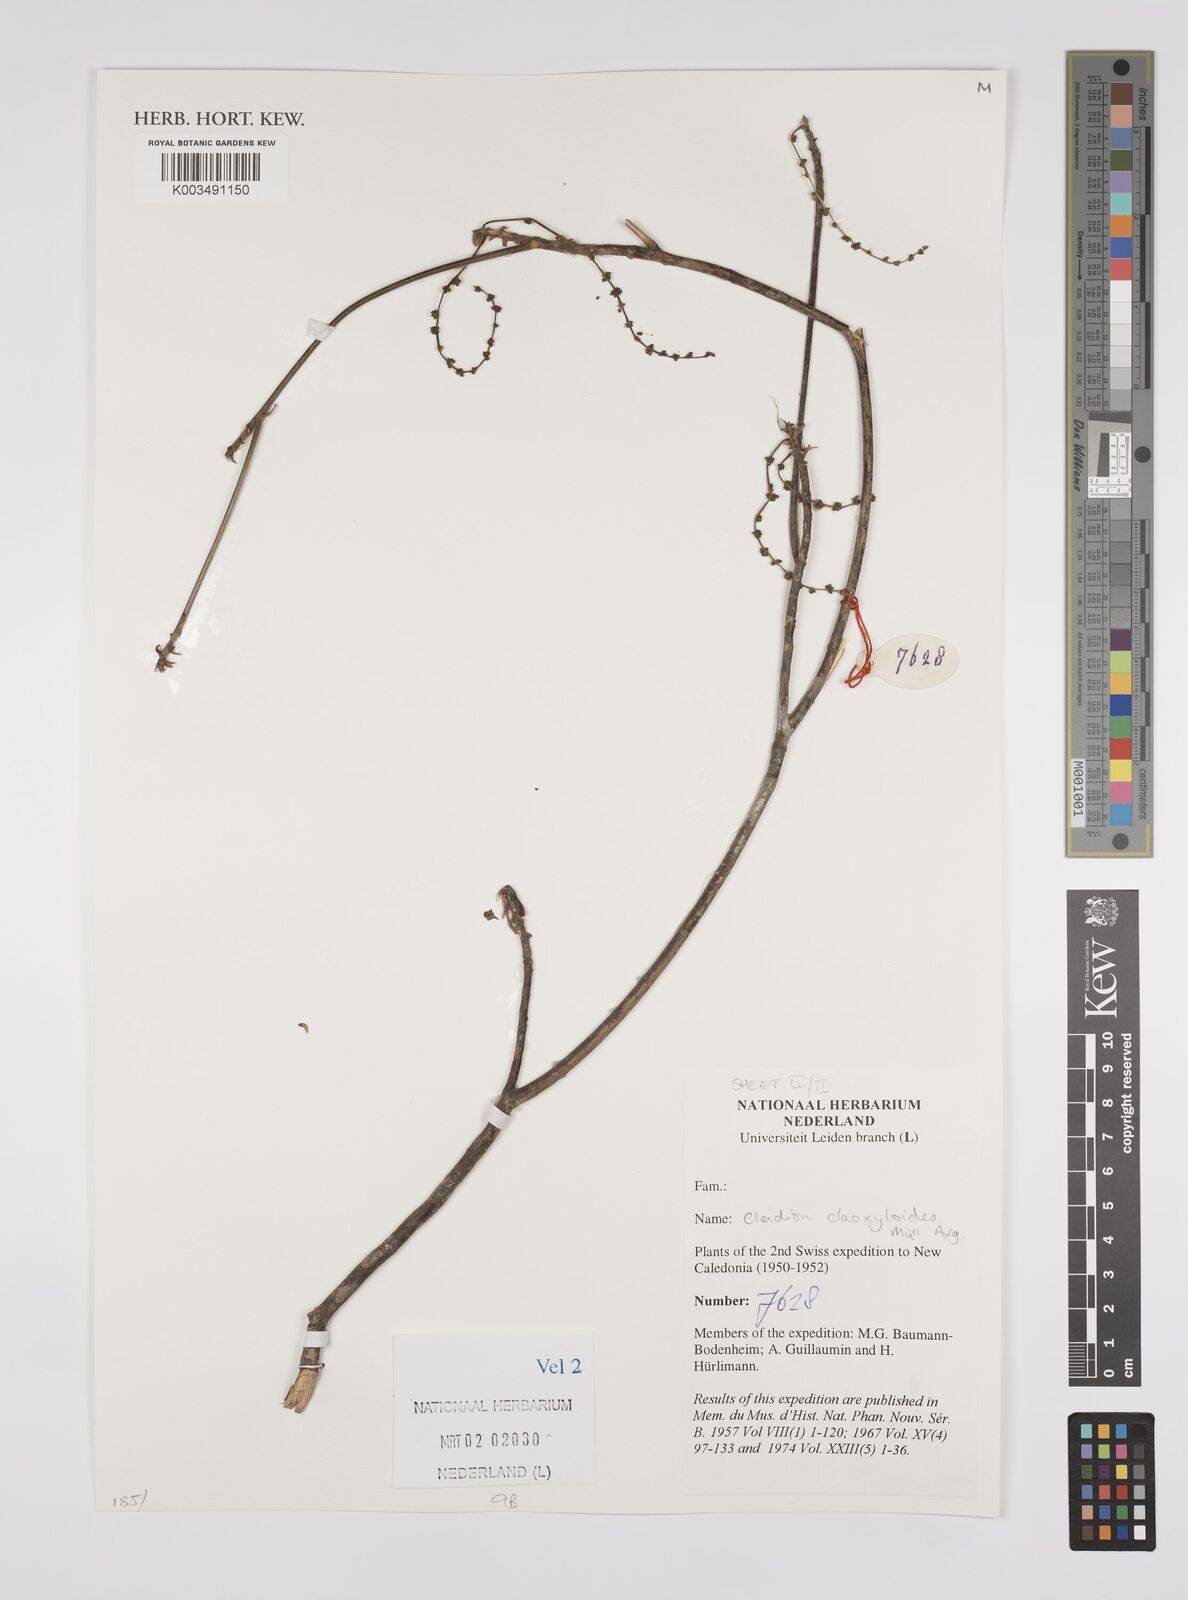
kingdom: Plantae
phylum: Tracheophyta
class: Magnoliopsida
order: Malpighiales
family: Euphorbiaceae
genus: Cleidion
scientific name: Cleidion claoxyloides
